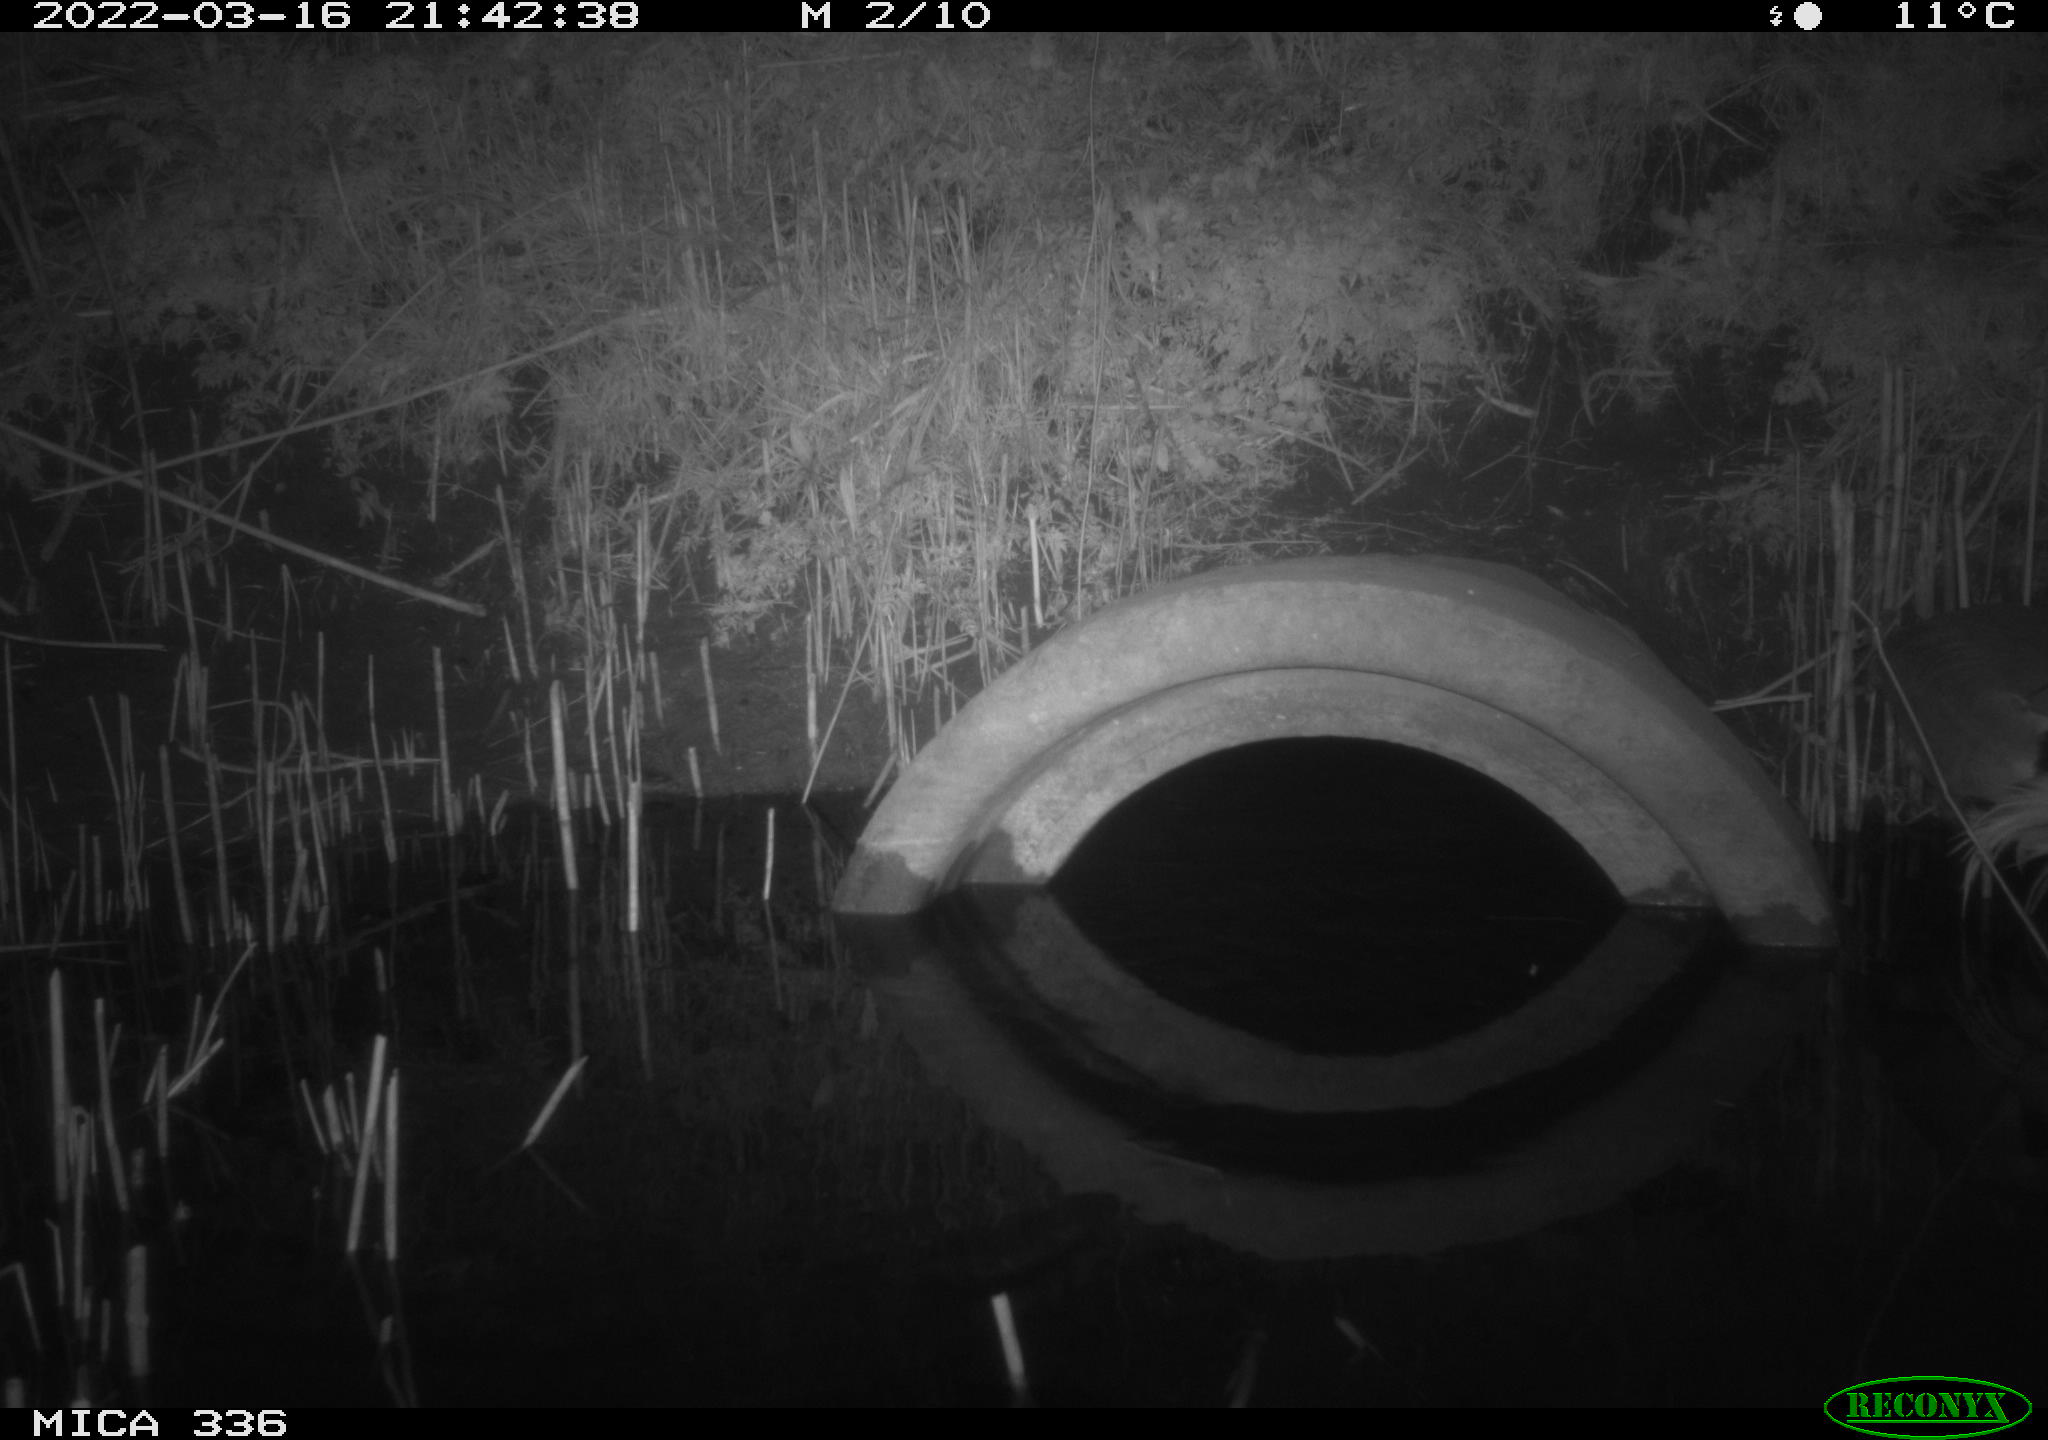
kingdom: Animalia
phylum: Chordata
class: Aves
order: Pelecaniformes
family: Ardeidae
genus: Ardea
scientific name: Ardea cinerea
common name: Grey heron
